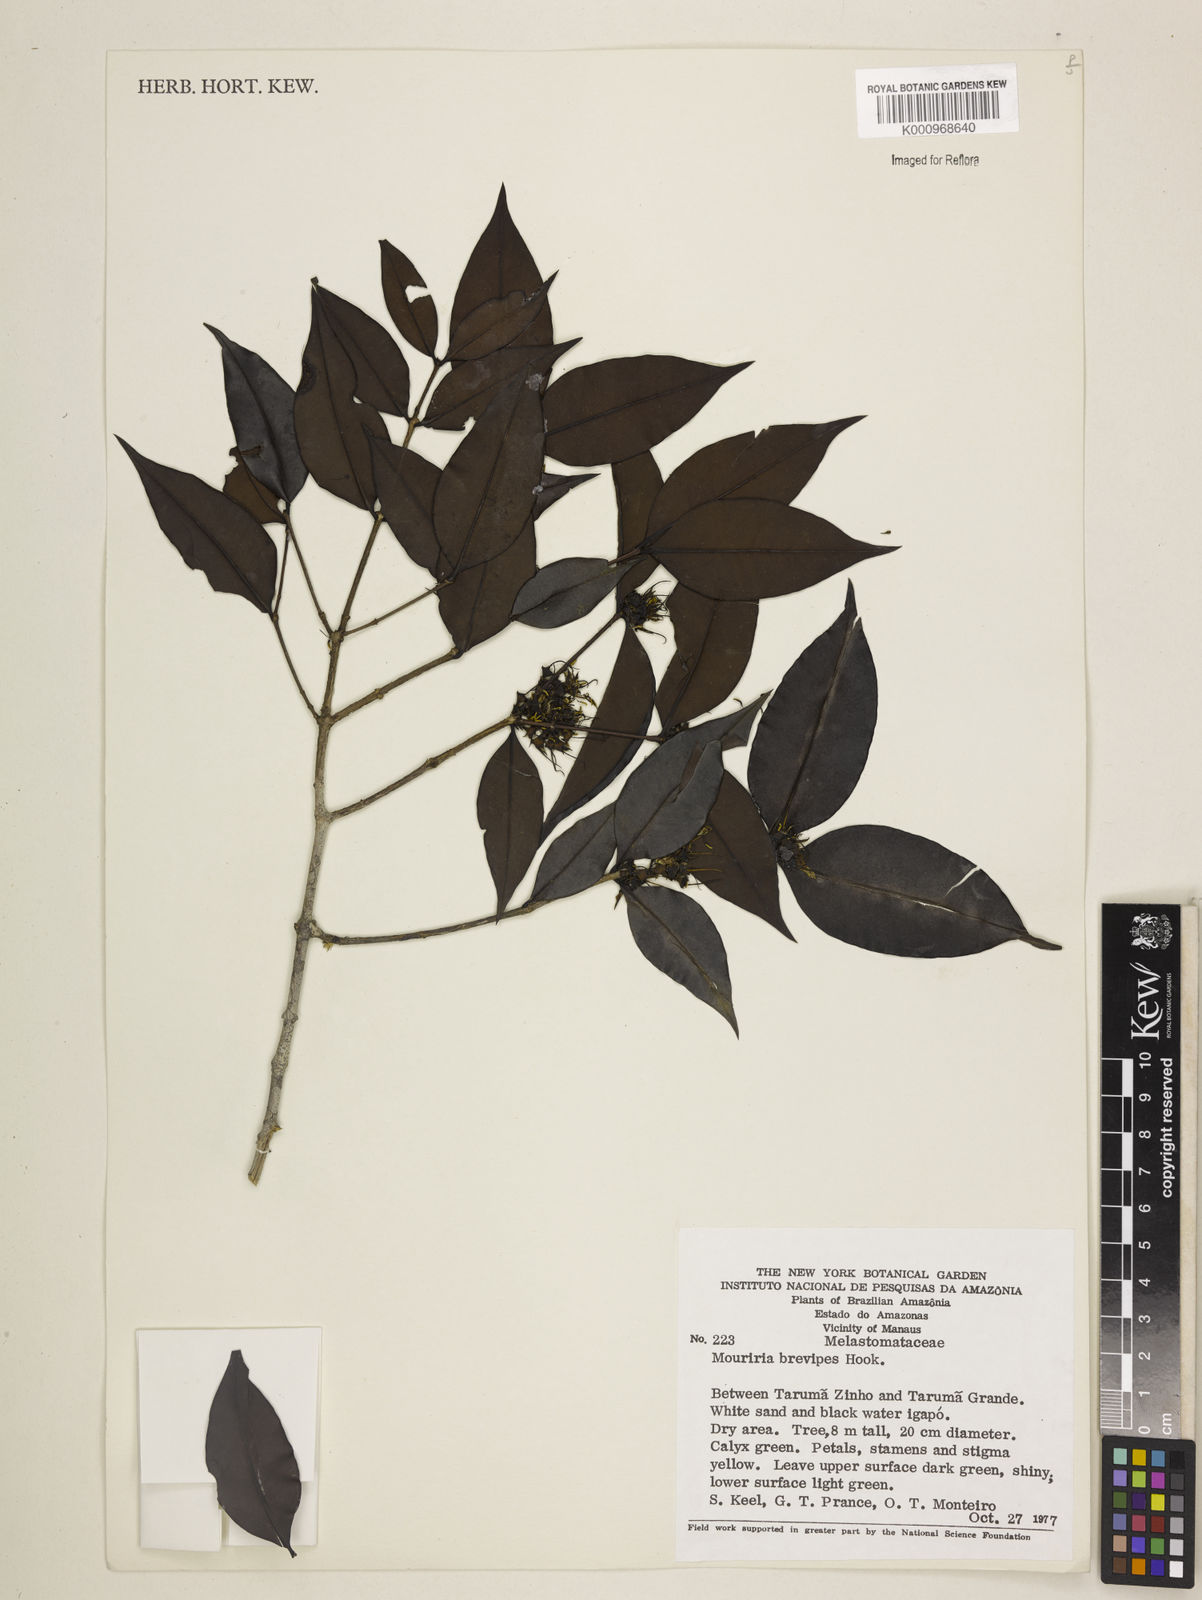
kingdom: Plantae
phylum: Tracheophyta
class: Magnoliopsida
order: Myrtales
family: Melastomataceae
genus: Mouriri
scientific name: Mouriri
